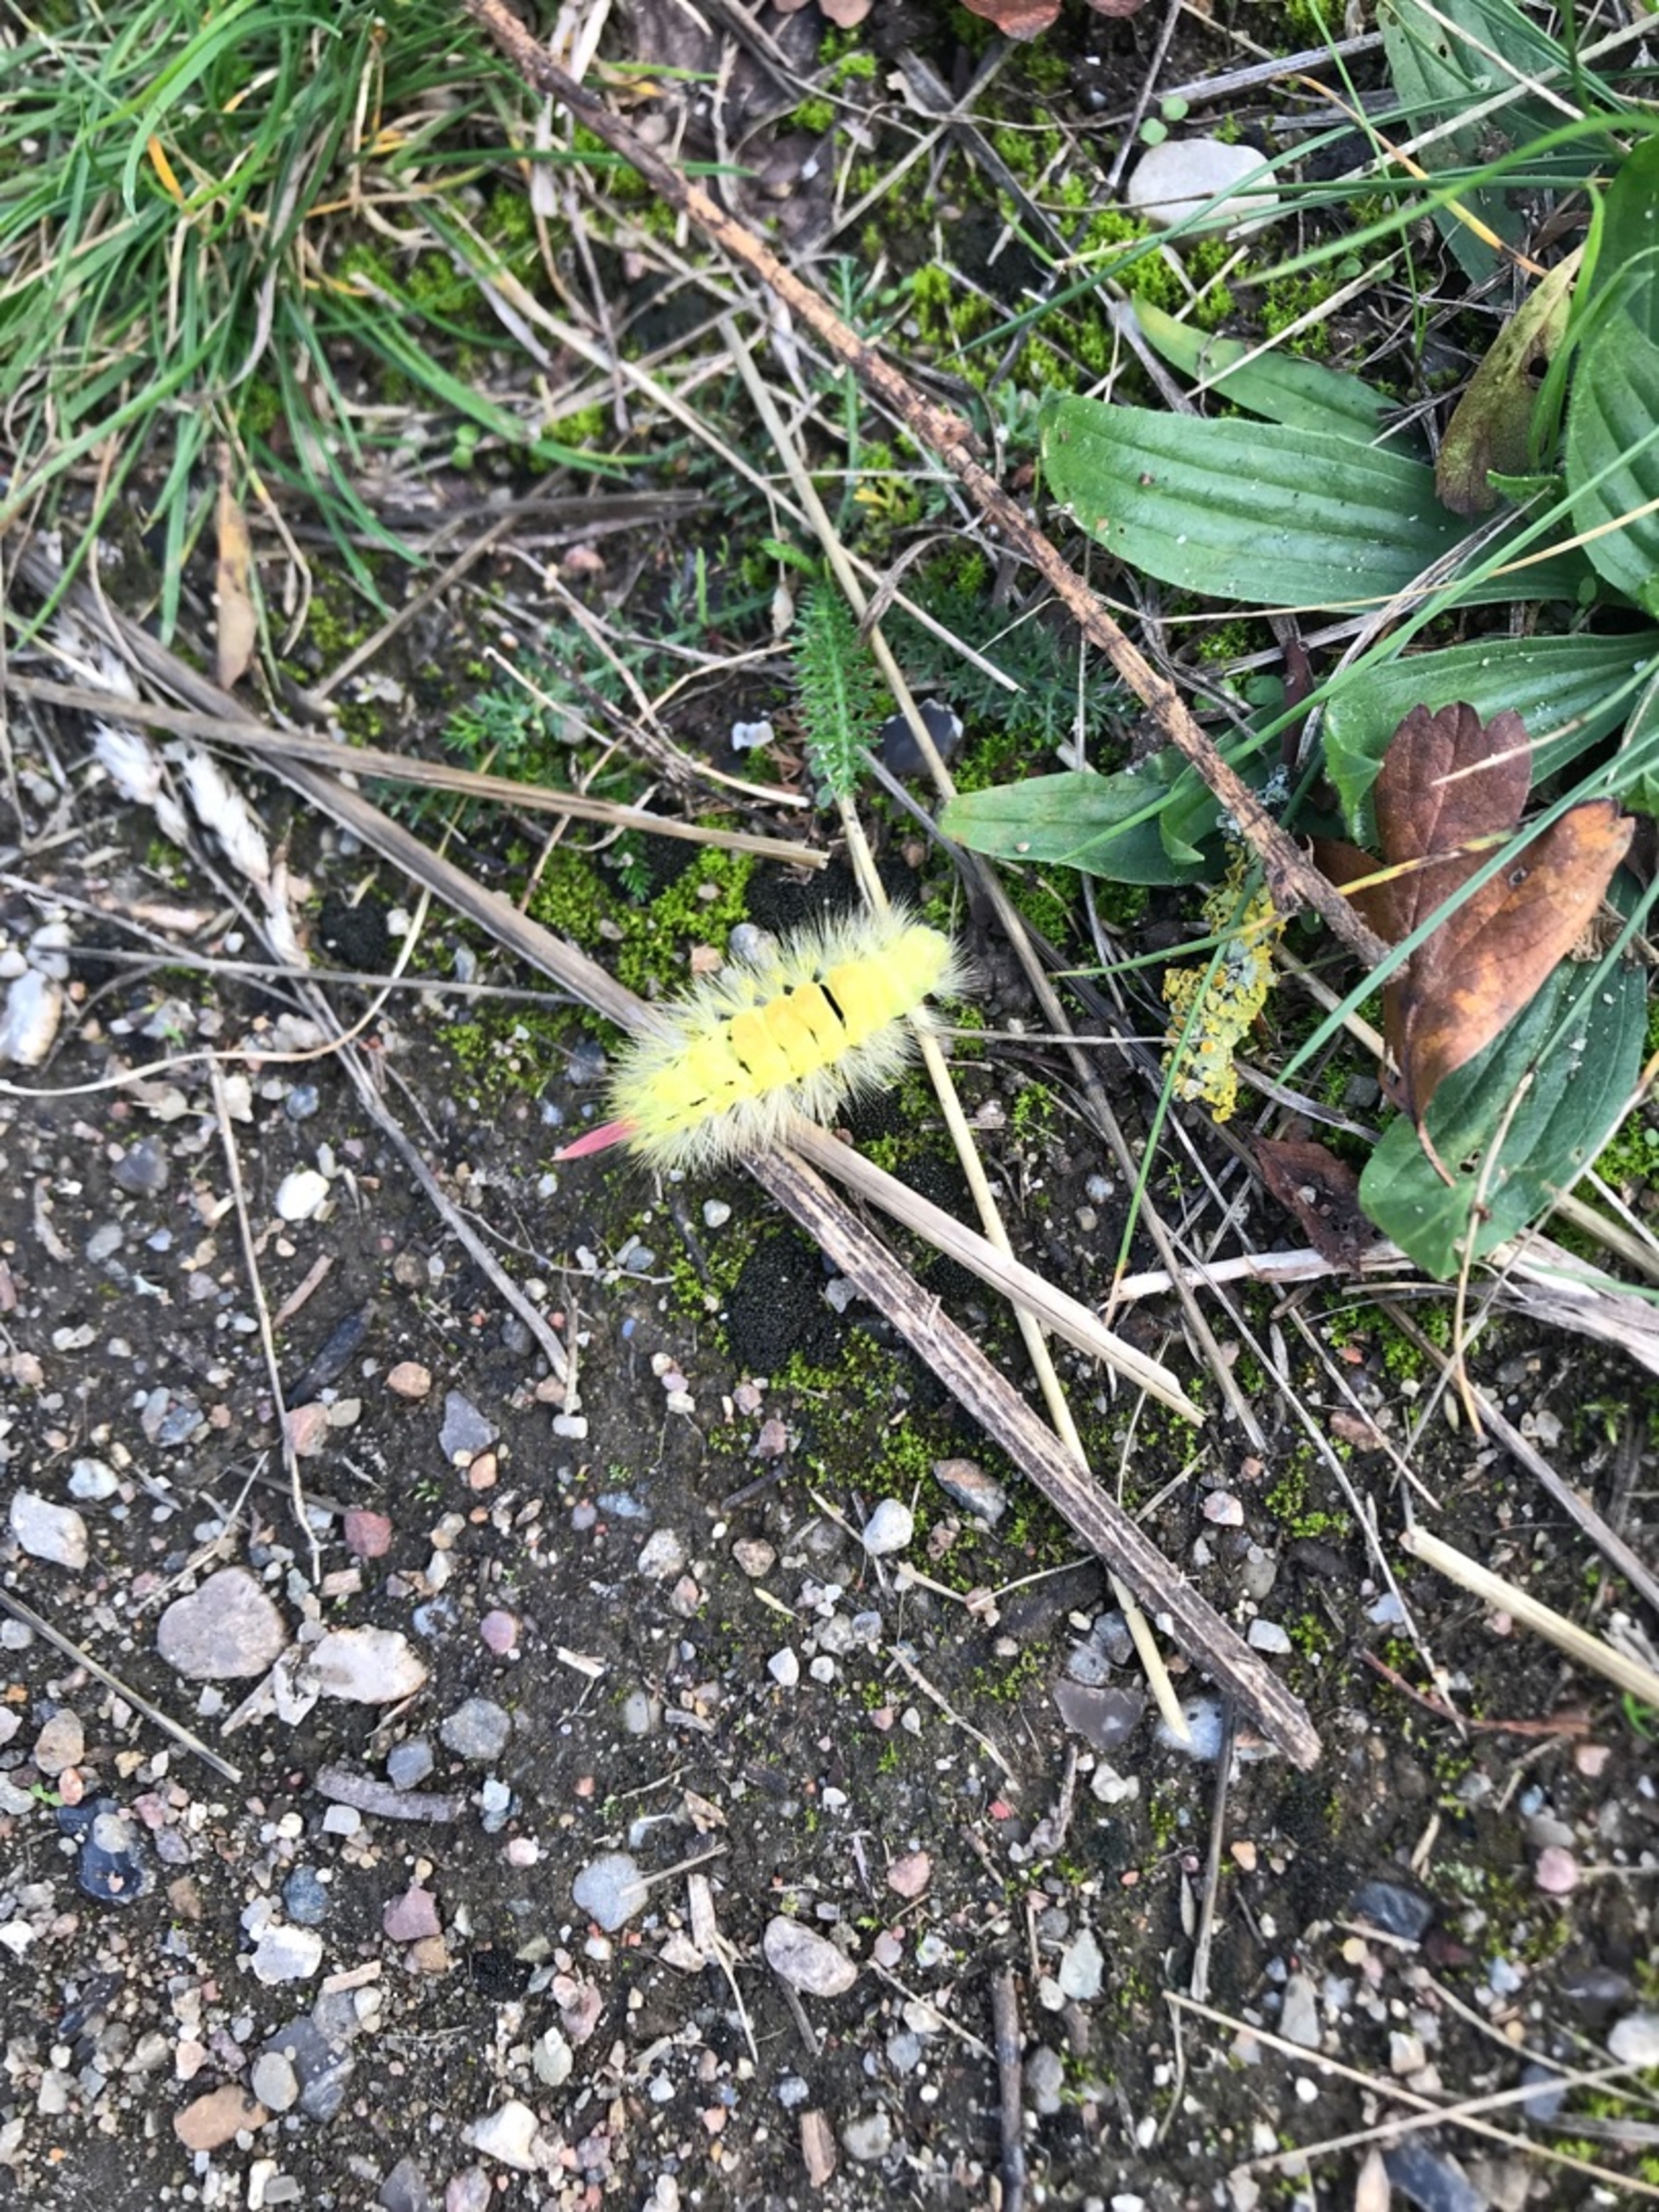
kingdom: Animalia
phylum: Arthropoda
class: Insecta
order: Lepidoptera
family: Erebidae
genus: Calliteara
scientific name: Calliteara pudibunda
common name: Bøgenonne
